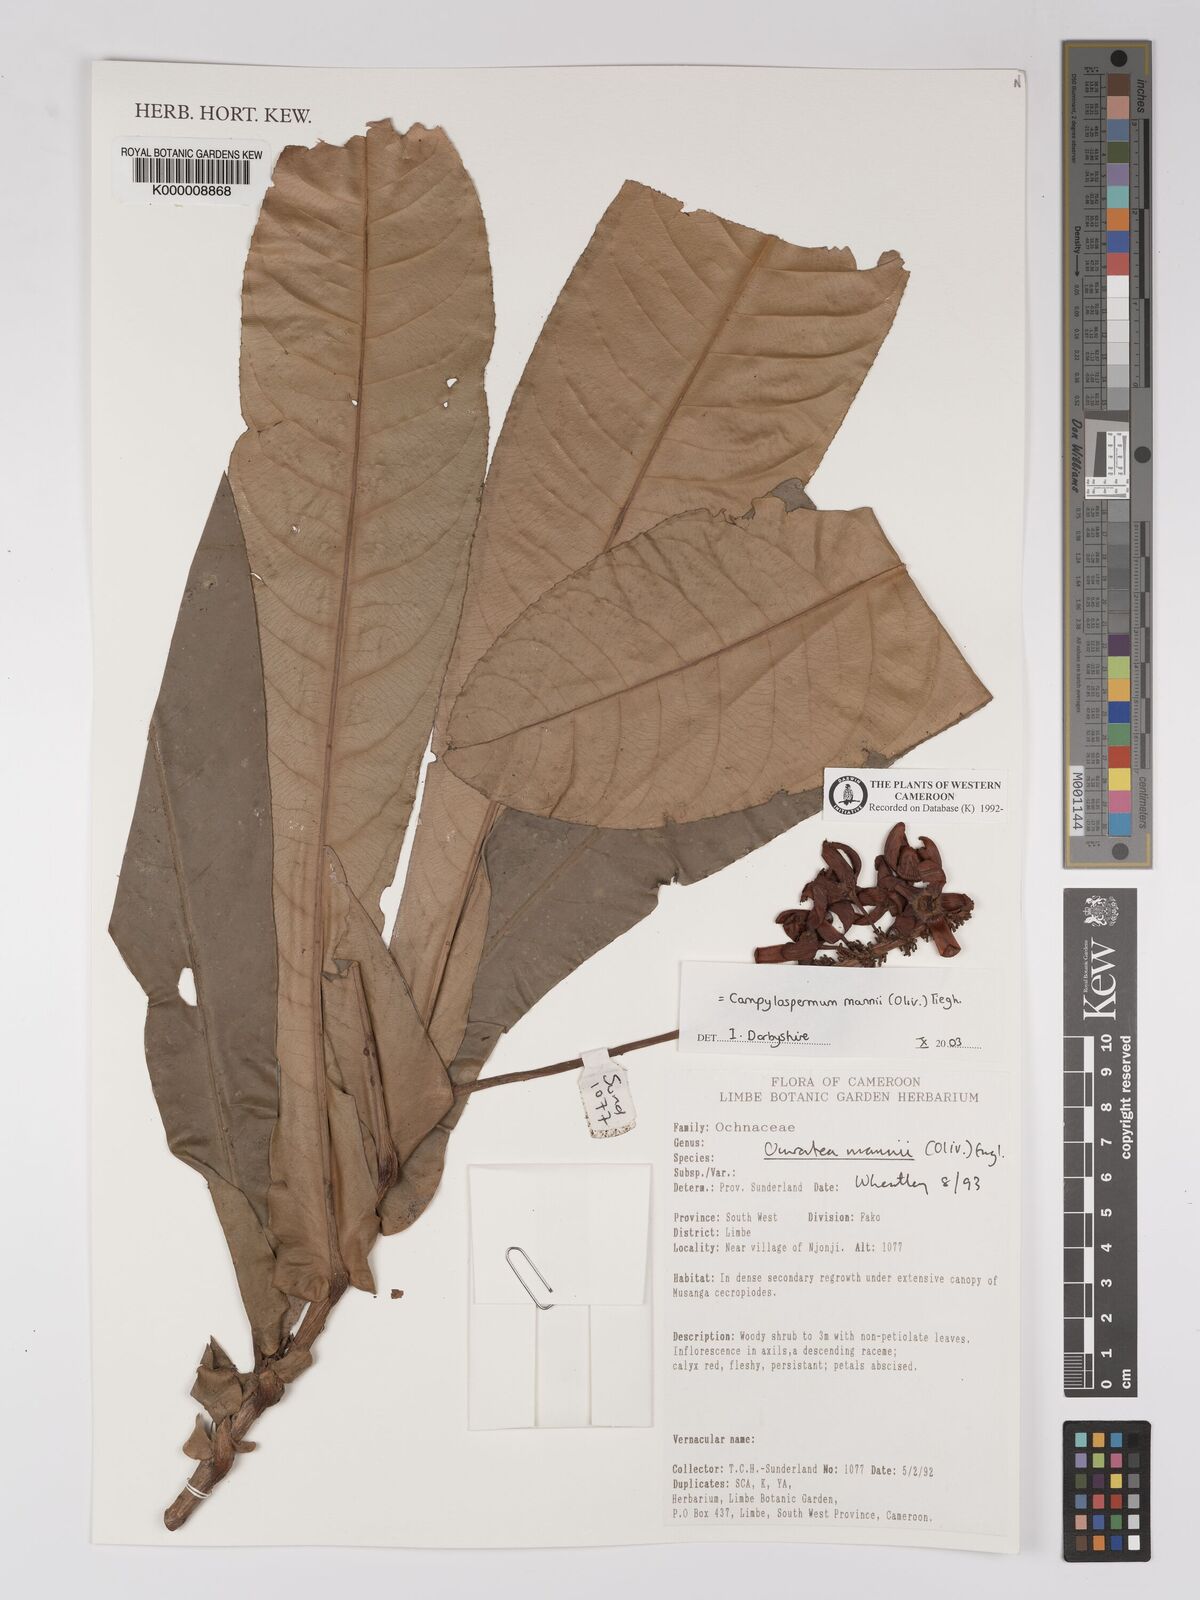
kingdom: Plantae
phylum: Tracheophyta
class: Magnoliopsida
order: Malpighiales
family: Ochnaceae
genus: Campylospermum
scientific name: Campylospermum mannii
